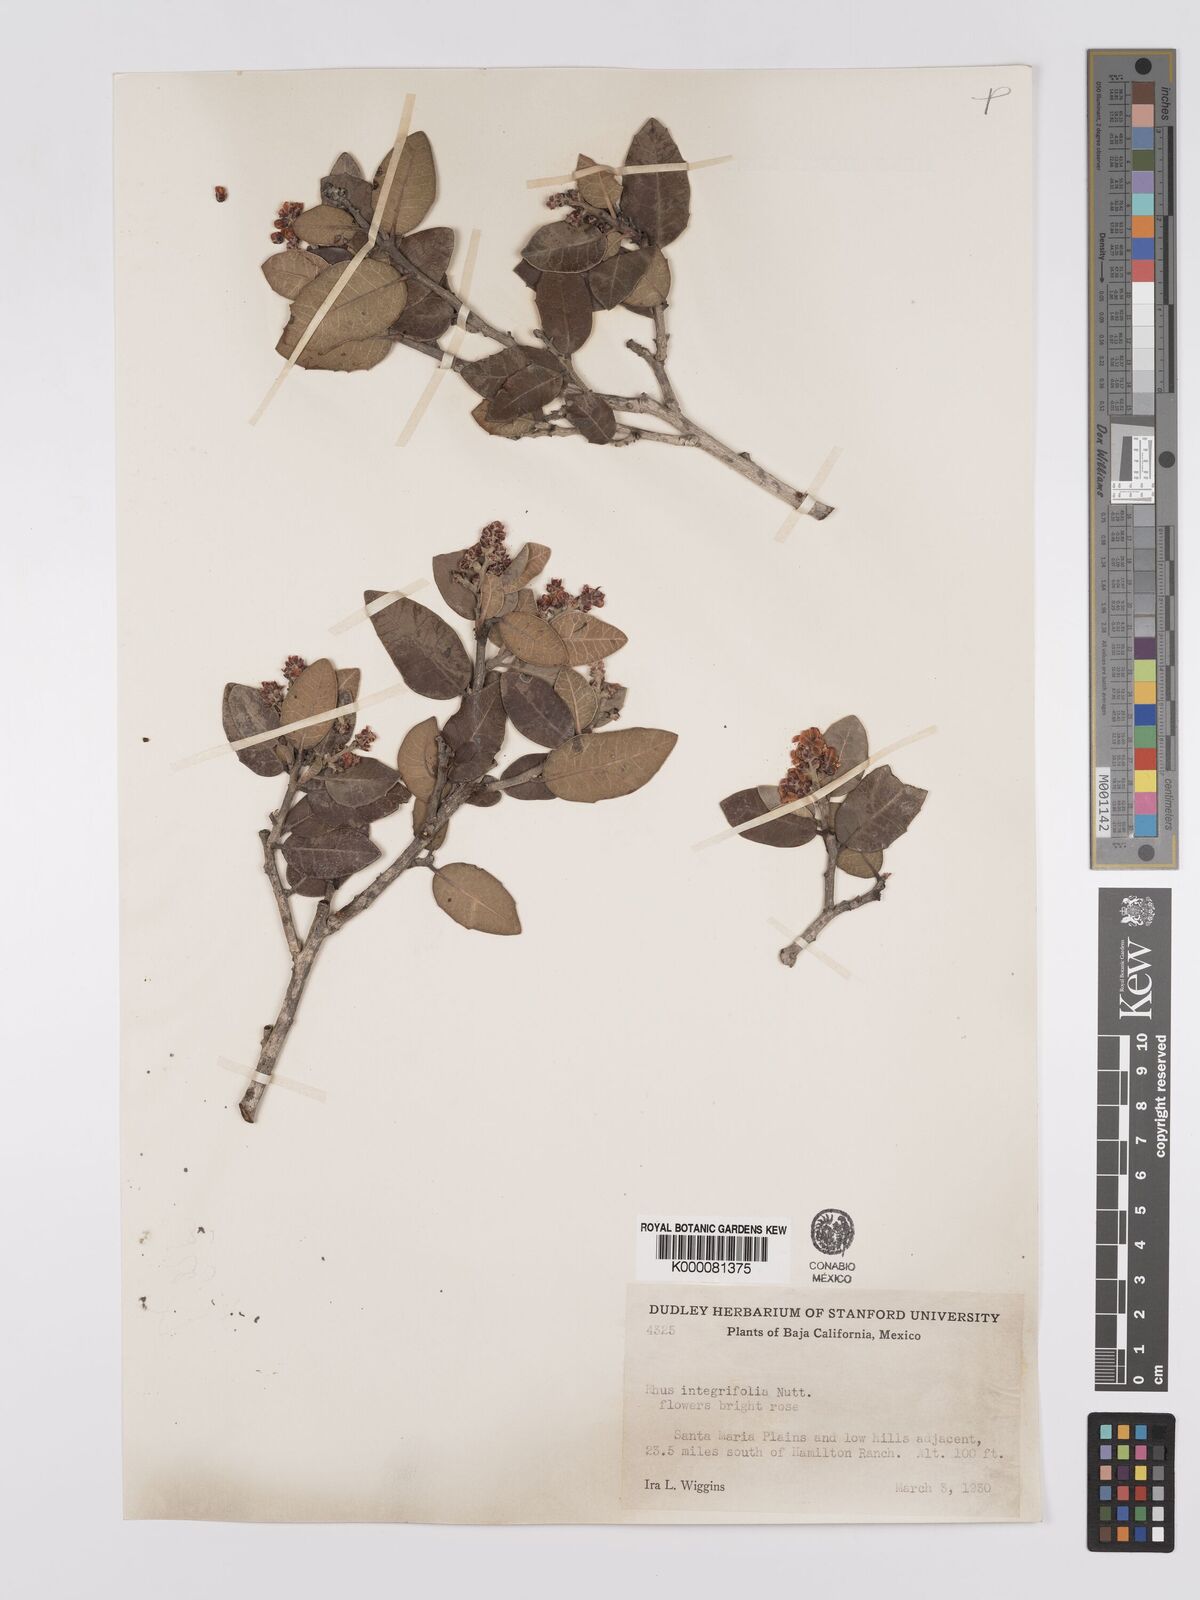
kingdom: Plantae
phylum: Tracheophyta
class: Magnoliopsida
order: Sapindales
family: Anacardiaceae
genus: Rhus
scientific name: Rhus integrifolia
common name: Lemonade sumac
